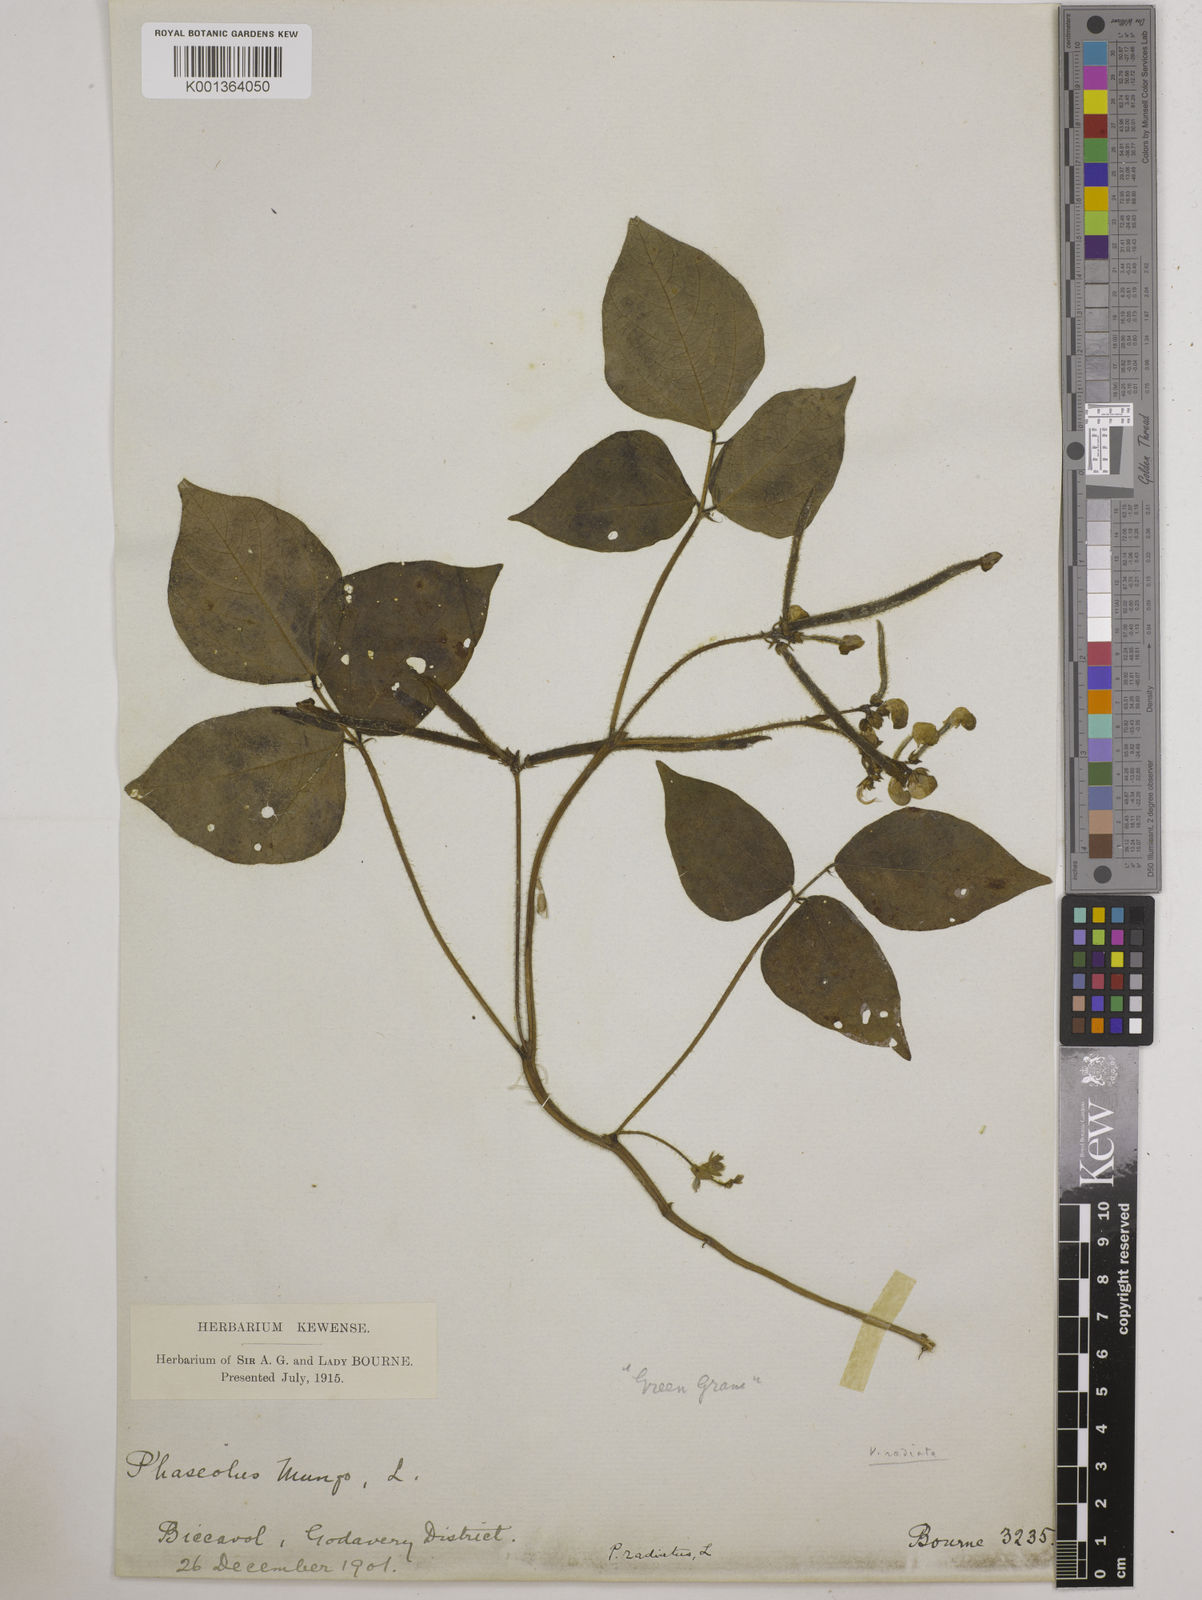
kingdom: Plantae
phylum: Tracheophyta
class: Magnoliopsida
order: Fabales
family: Fabaceae
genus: Vigna
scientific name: Vigna radiata
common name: Mung-bean
